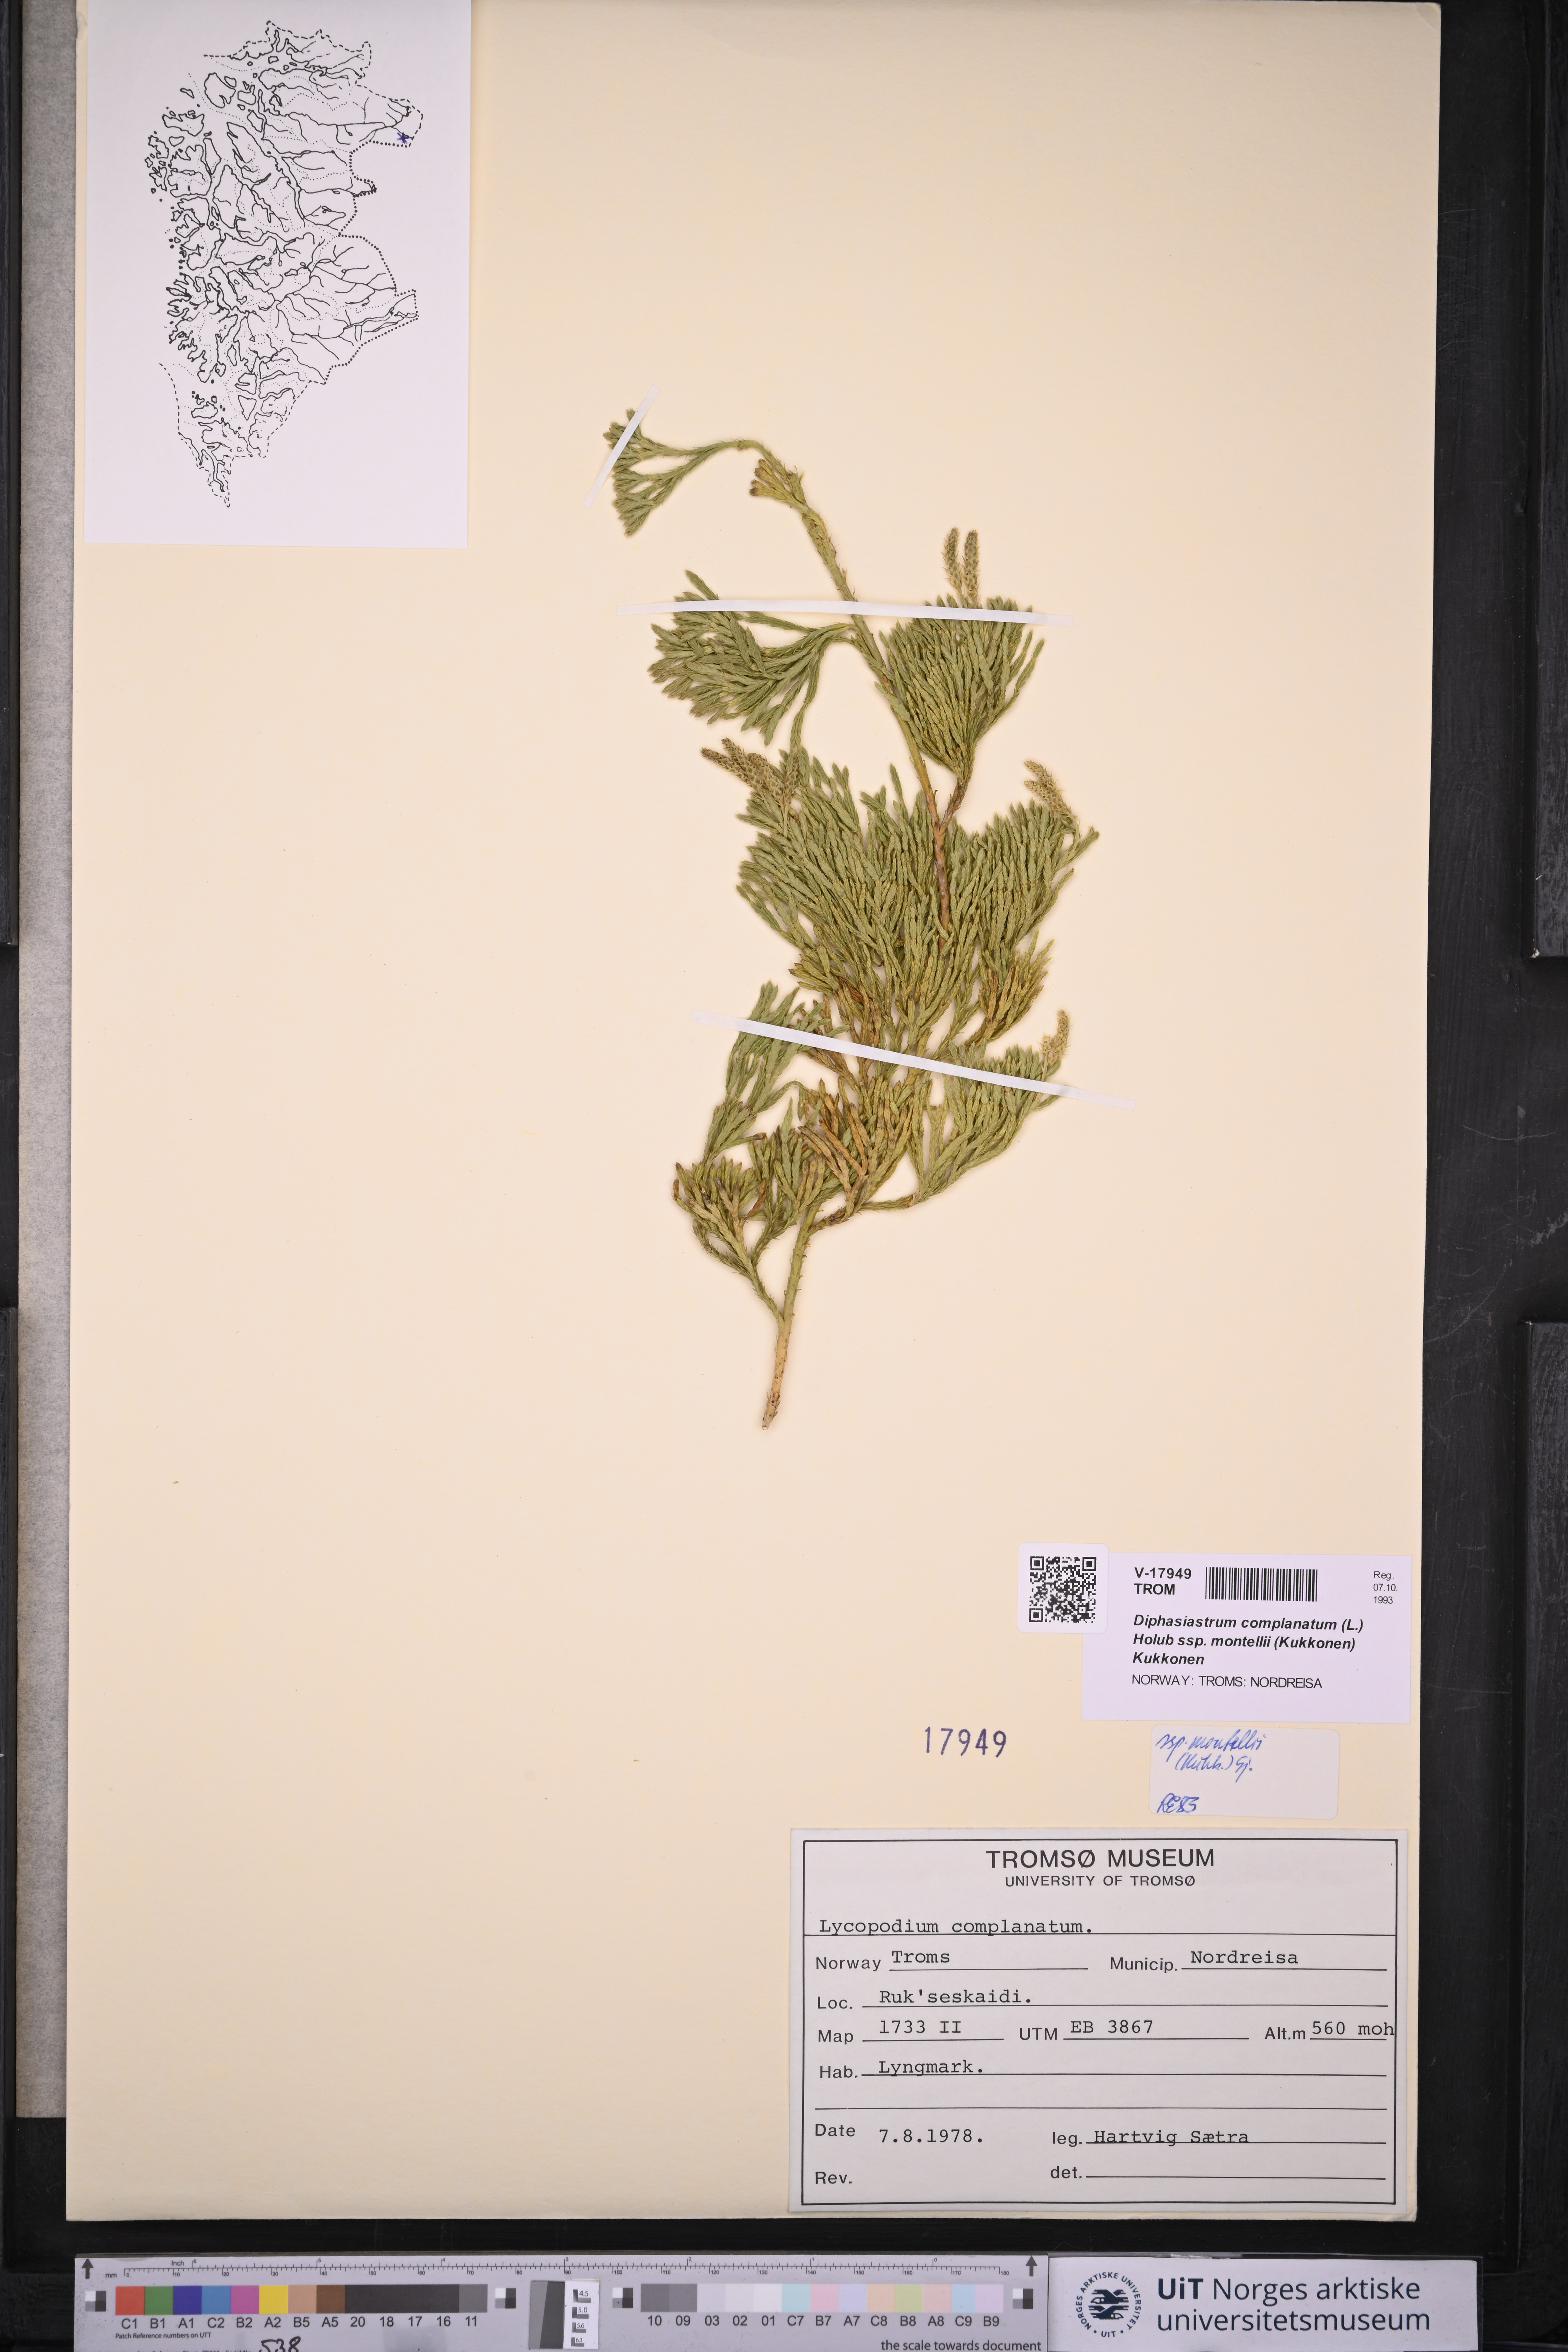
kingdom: Plantae
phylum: Tracheophyta
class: Lycopodiopsida
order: Lycopodiales
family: Lycopodiaceae
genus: Diphasiastrum
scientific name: Diphasiastrum complanatum
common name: Northern running-pine
